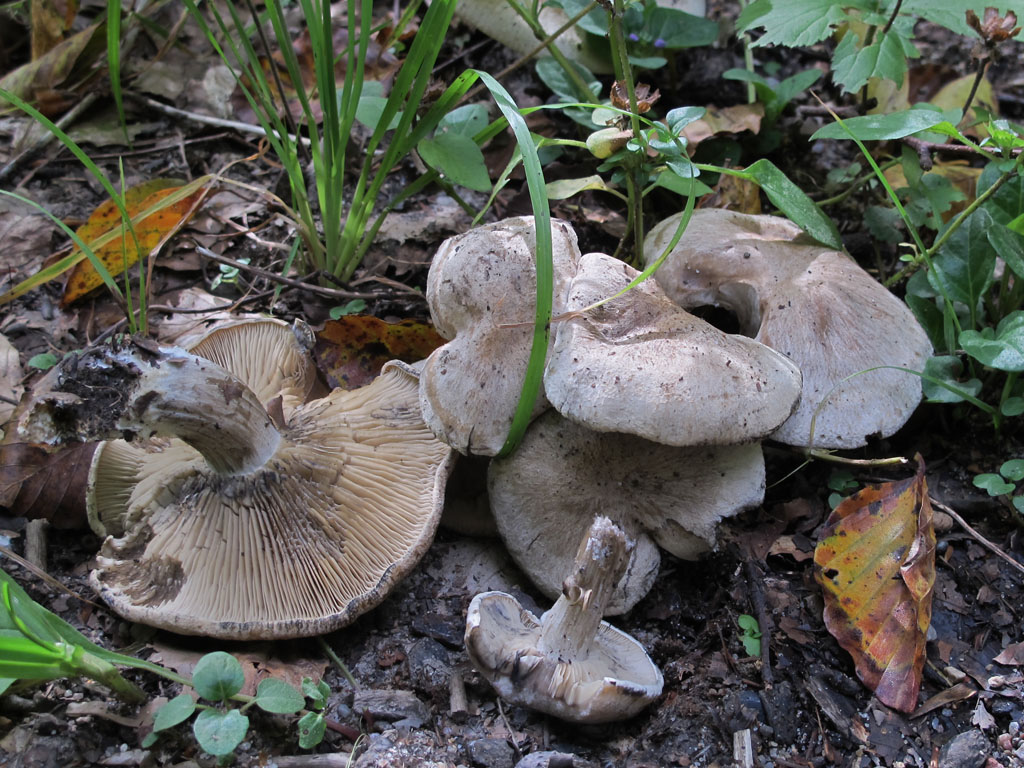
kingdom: Fungi
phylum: Basidiomycota
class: Agaricomycetes
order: Agaricales
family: Lyophyllaceae
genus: Calocybe
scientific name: Calocybe gangraenosa
